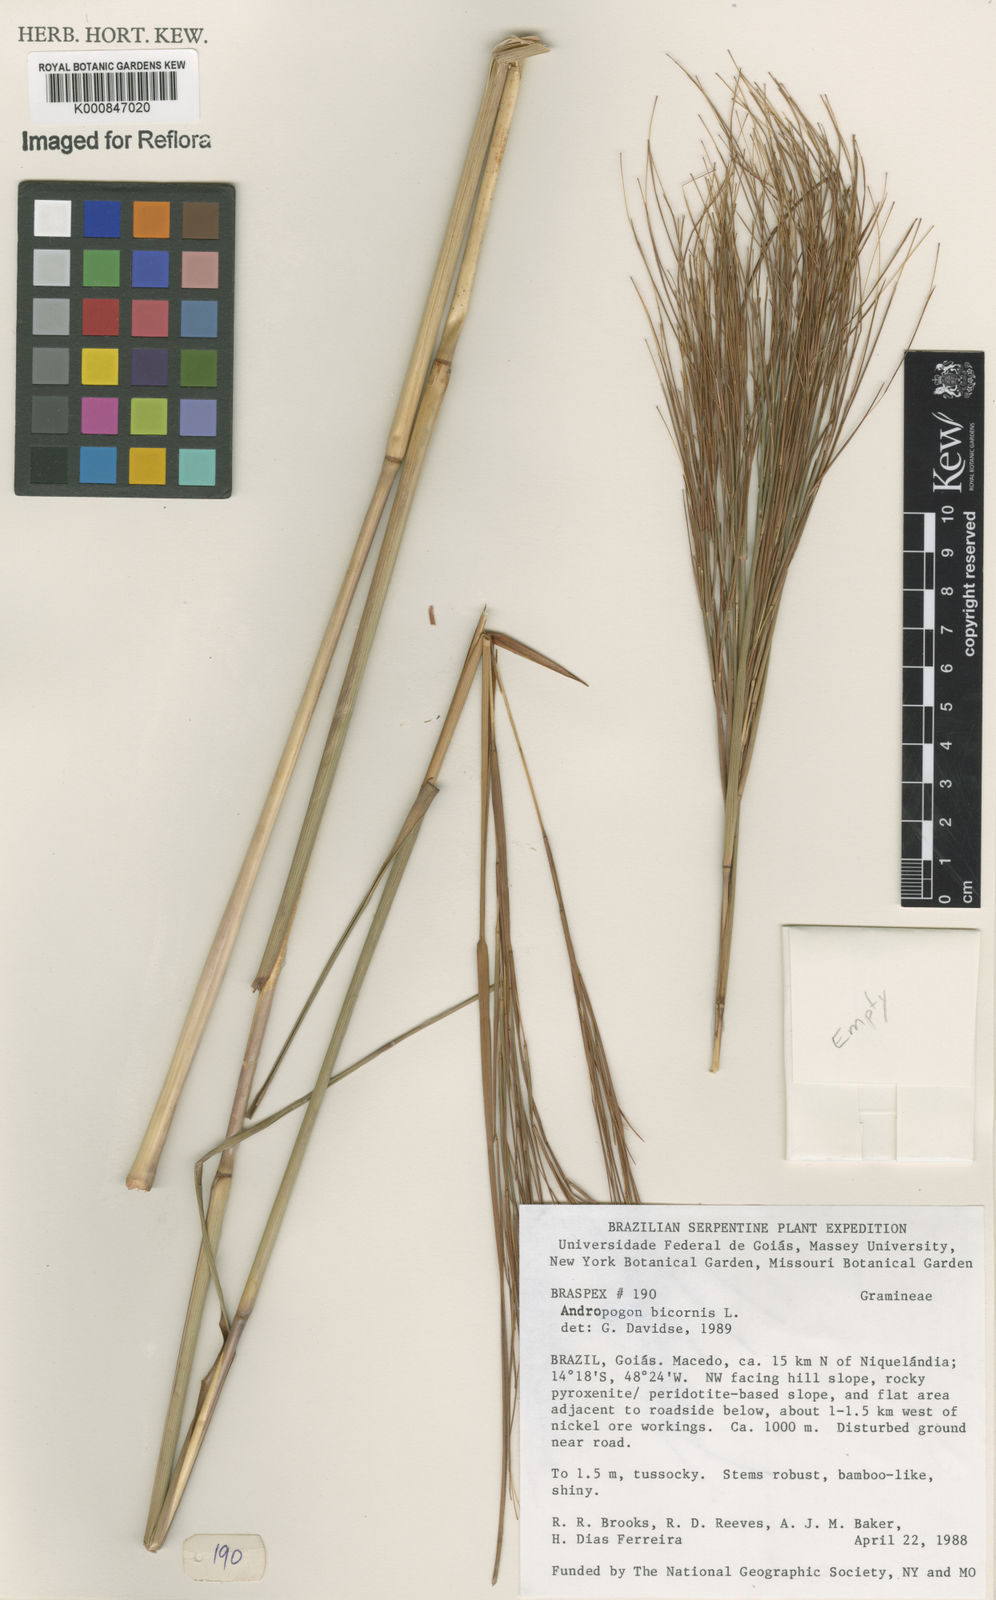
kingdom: Plantae
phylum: Tracheophyta
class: Liliopsida
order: Poales
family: Poaceae
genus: Andropogon
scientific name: Andropogon
